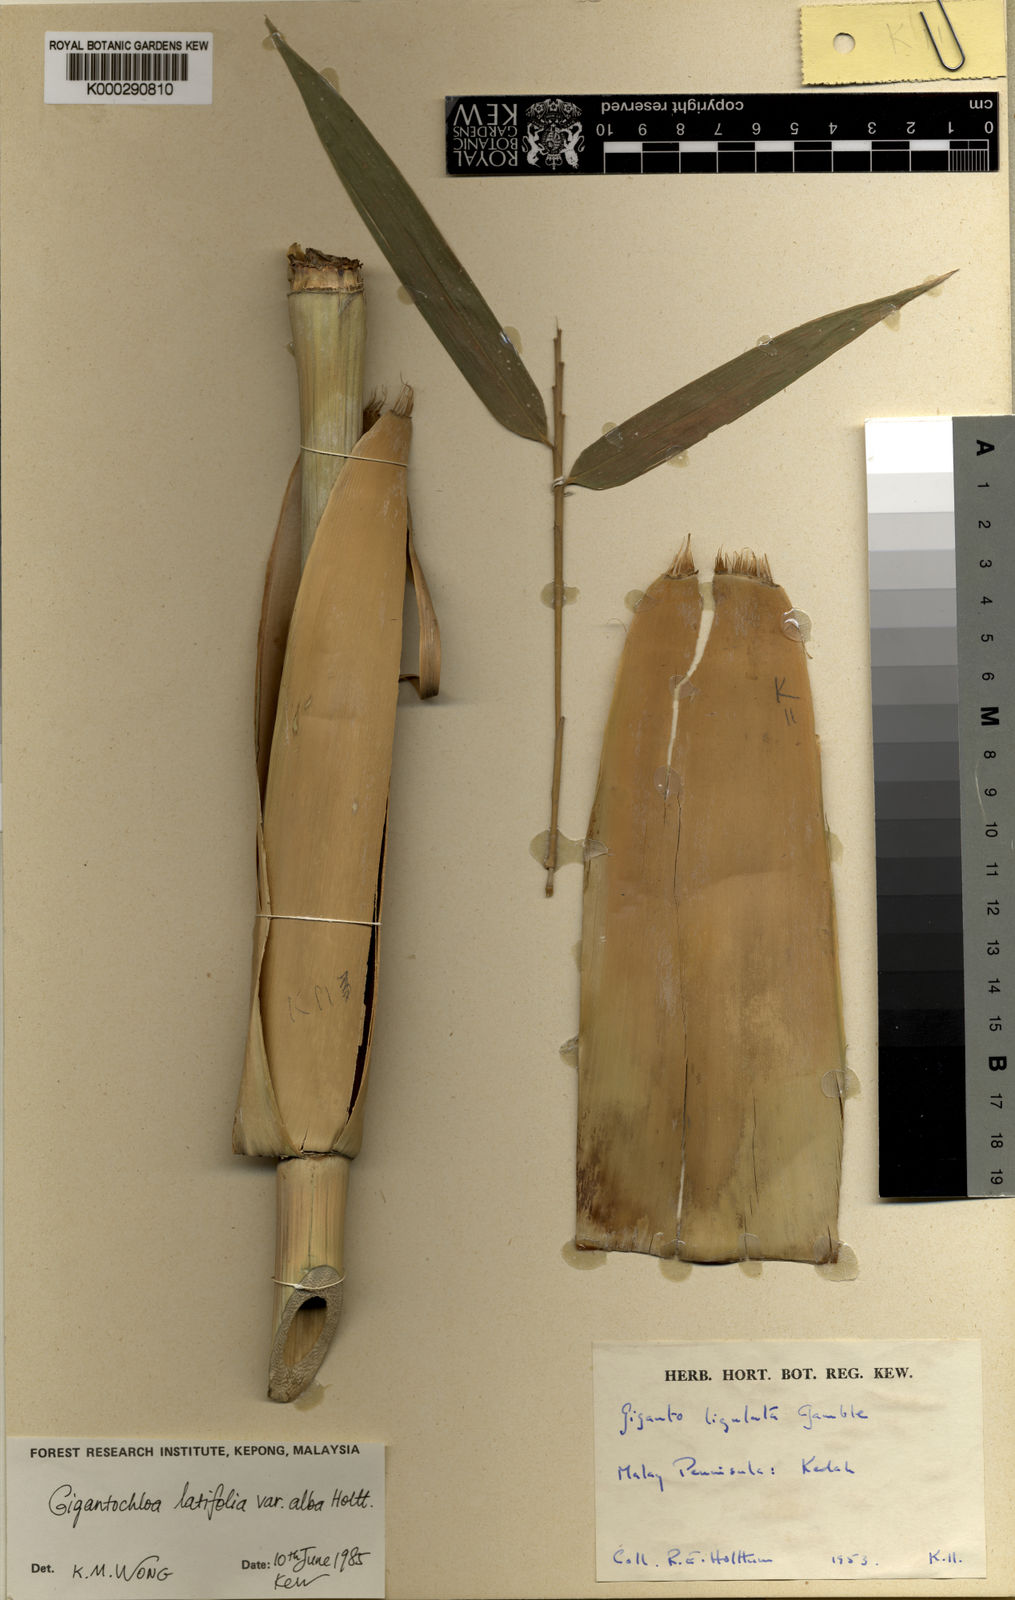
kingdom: Plantae
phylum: Tracheophyta
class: Liliopsida
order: Poales
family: Poaceae
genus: Gigantochloa
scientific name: Gigantochloa albovestita
